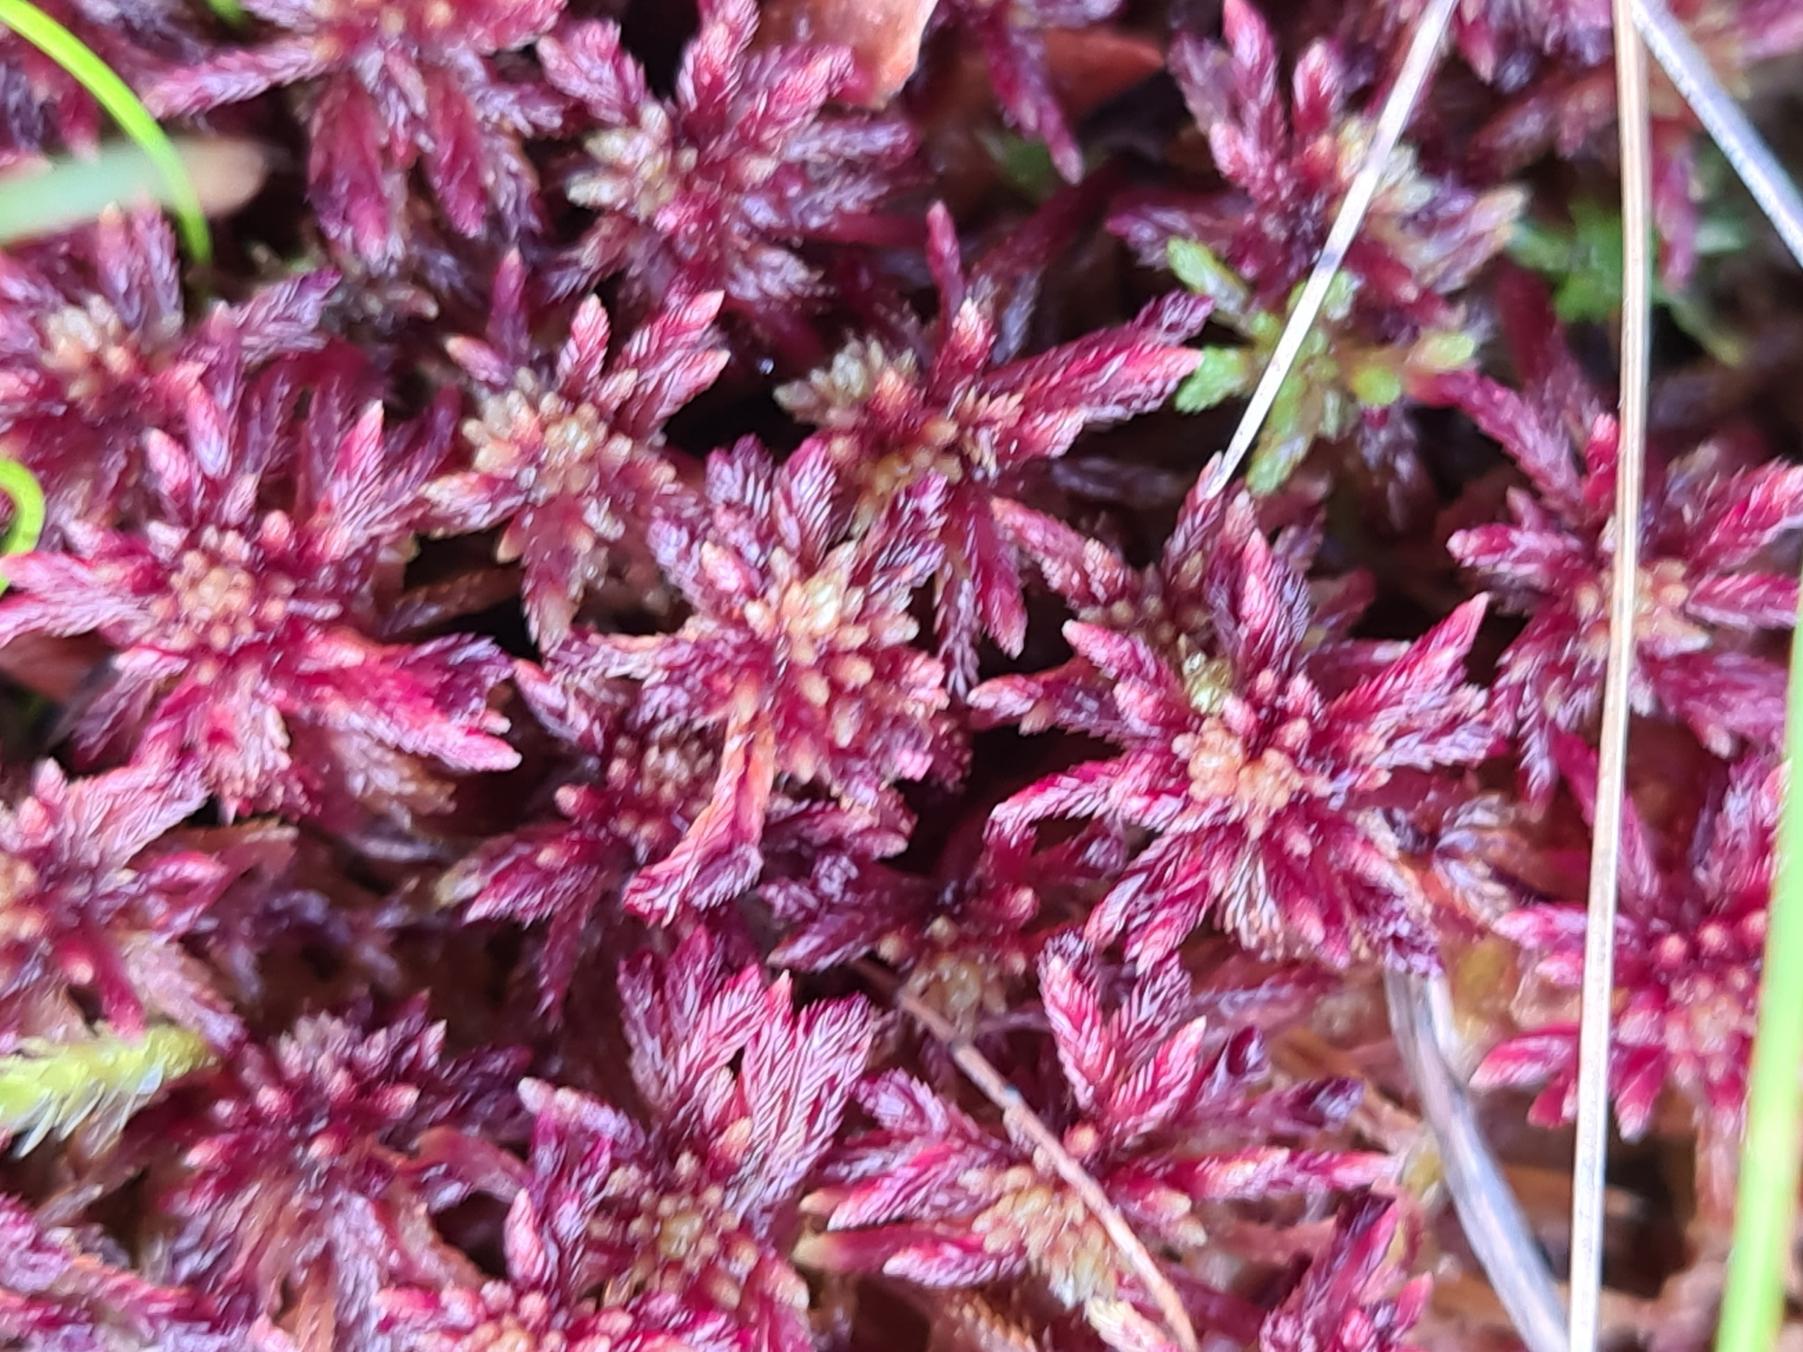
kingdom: Plantae
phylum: Bryophyta
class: Sphagnopsida
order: Sphagnales
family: Sphagnaceae
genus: Sphagnum
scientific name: Sphagnum warnstorfii
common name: Blygrå tørvemos
